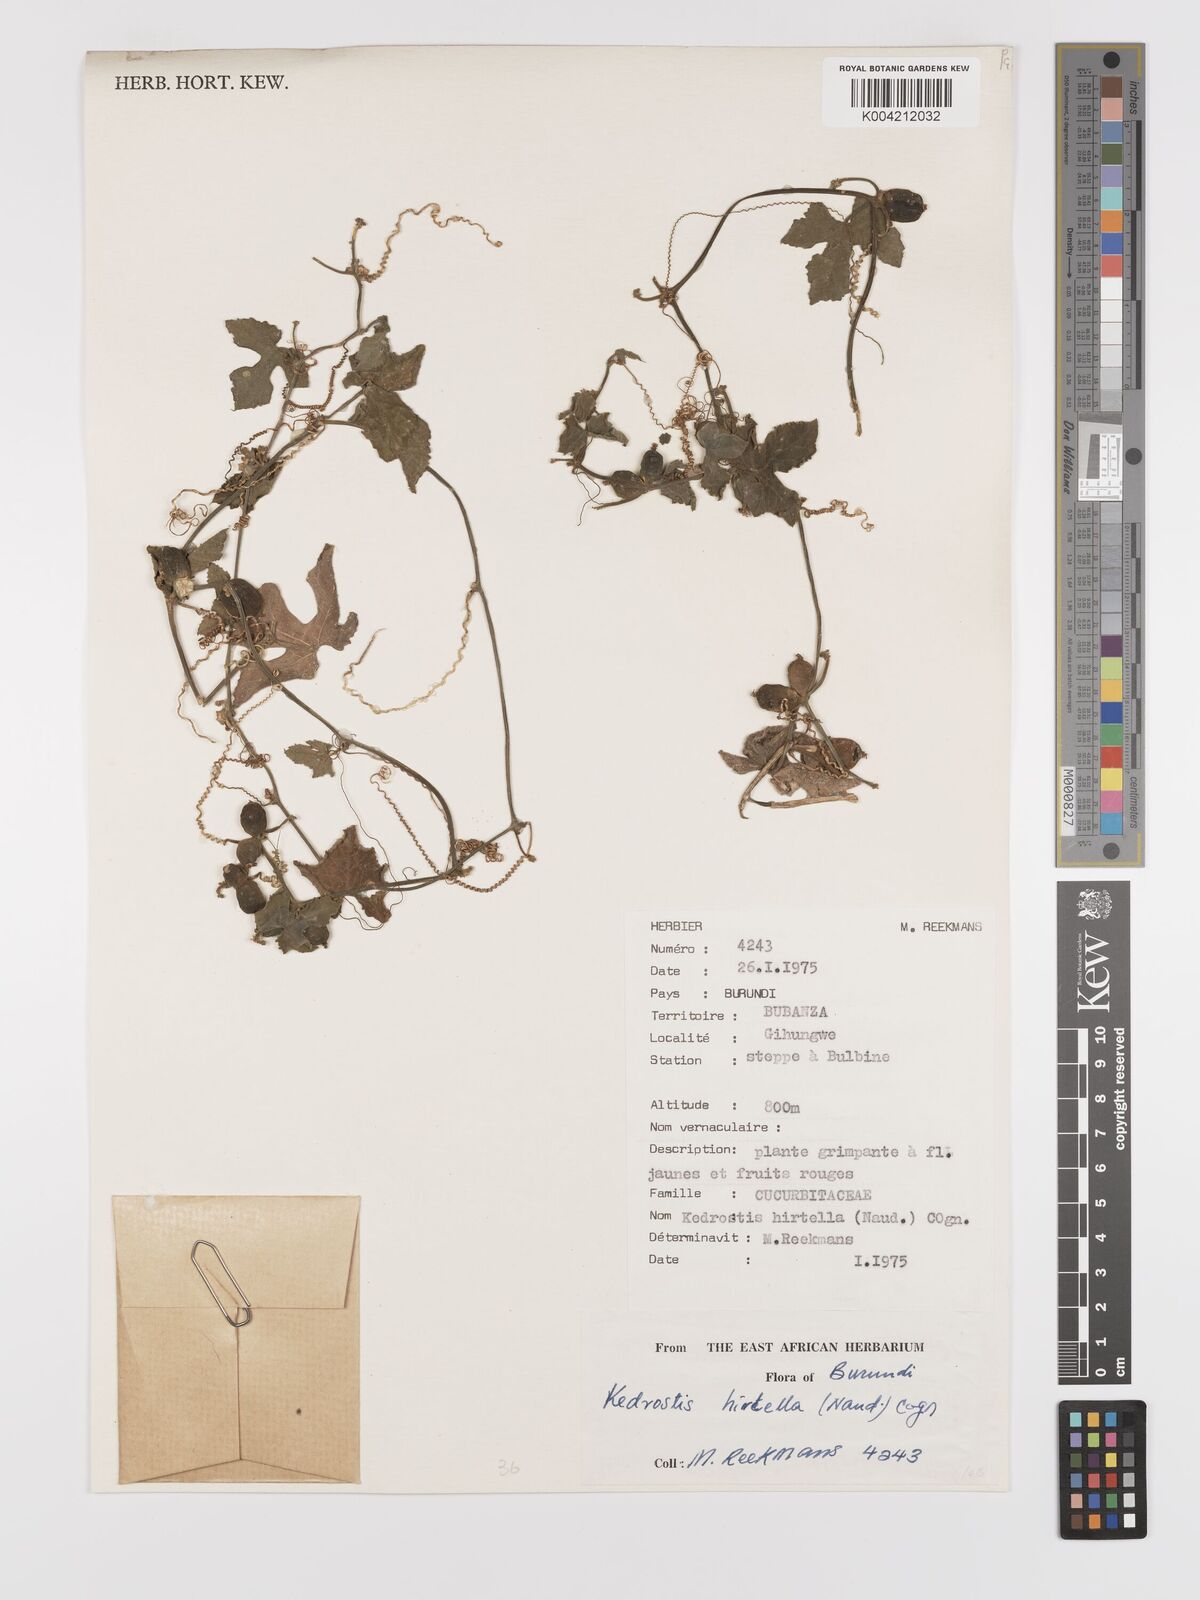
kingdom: Plantae
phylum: Tracheophyta
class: Magnoliopsida
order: Cucurbitales
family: Cucurbitaceae
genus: Kedrostis
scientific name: Kedrostis leloja
